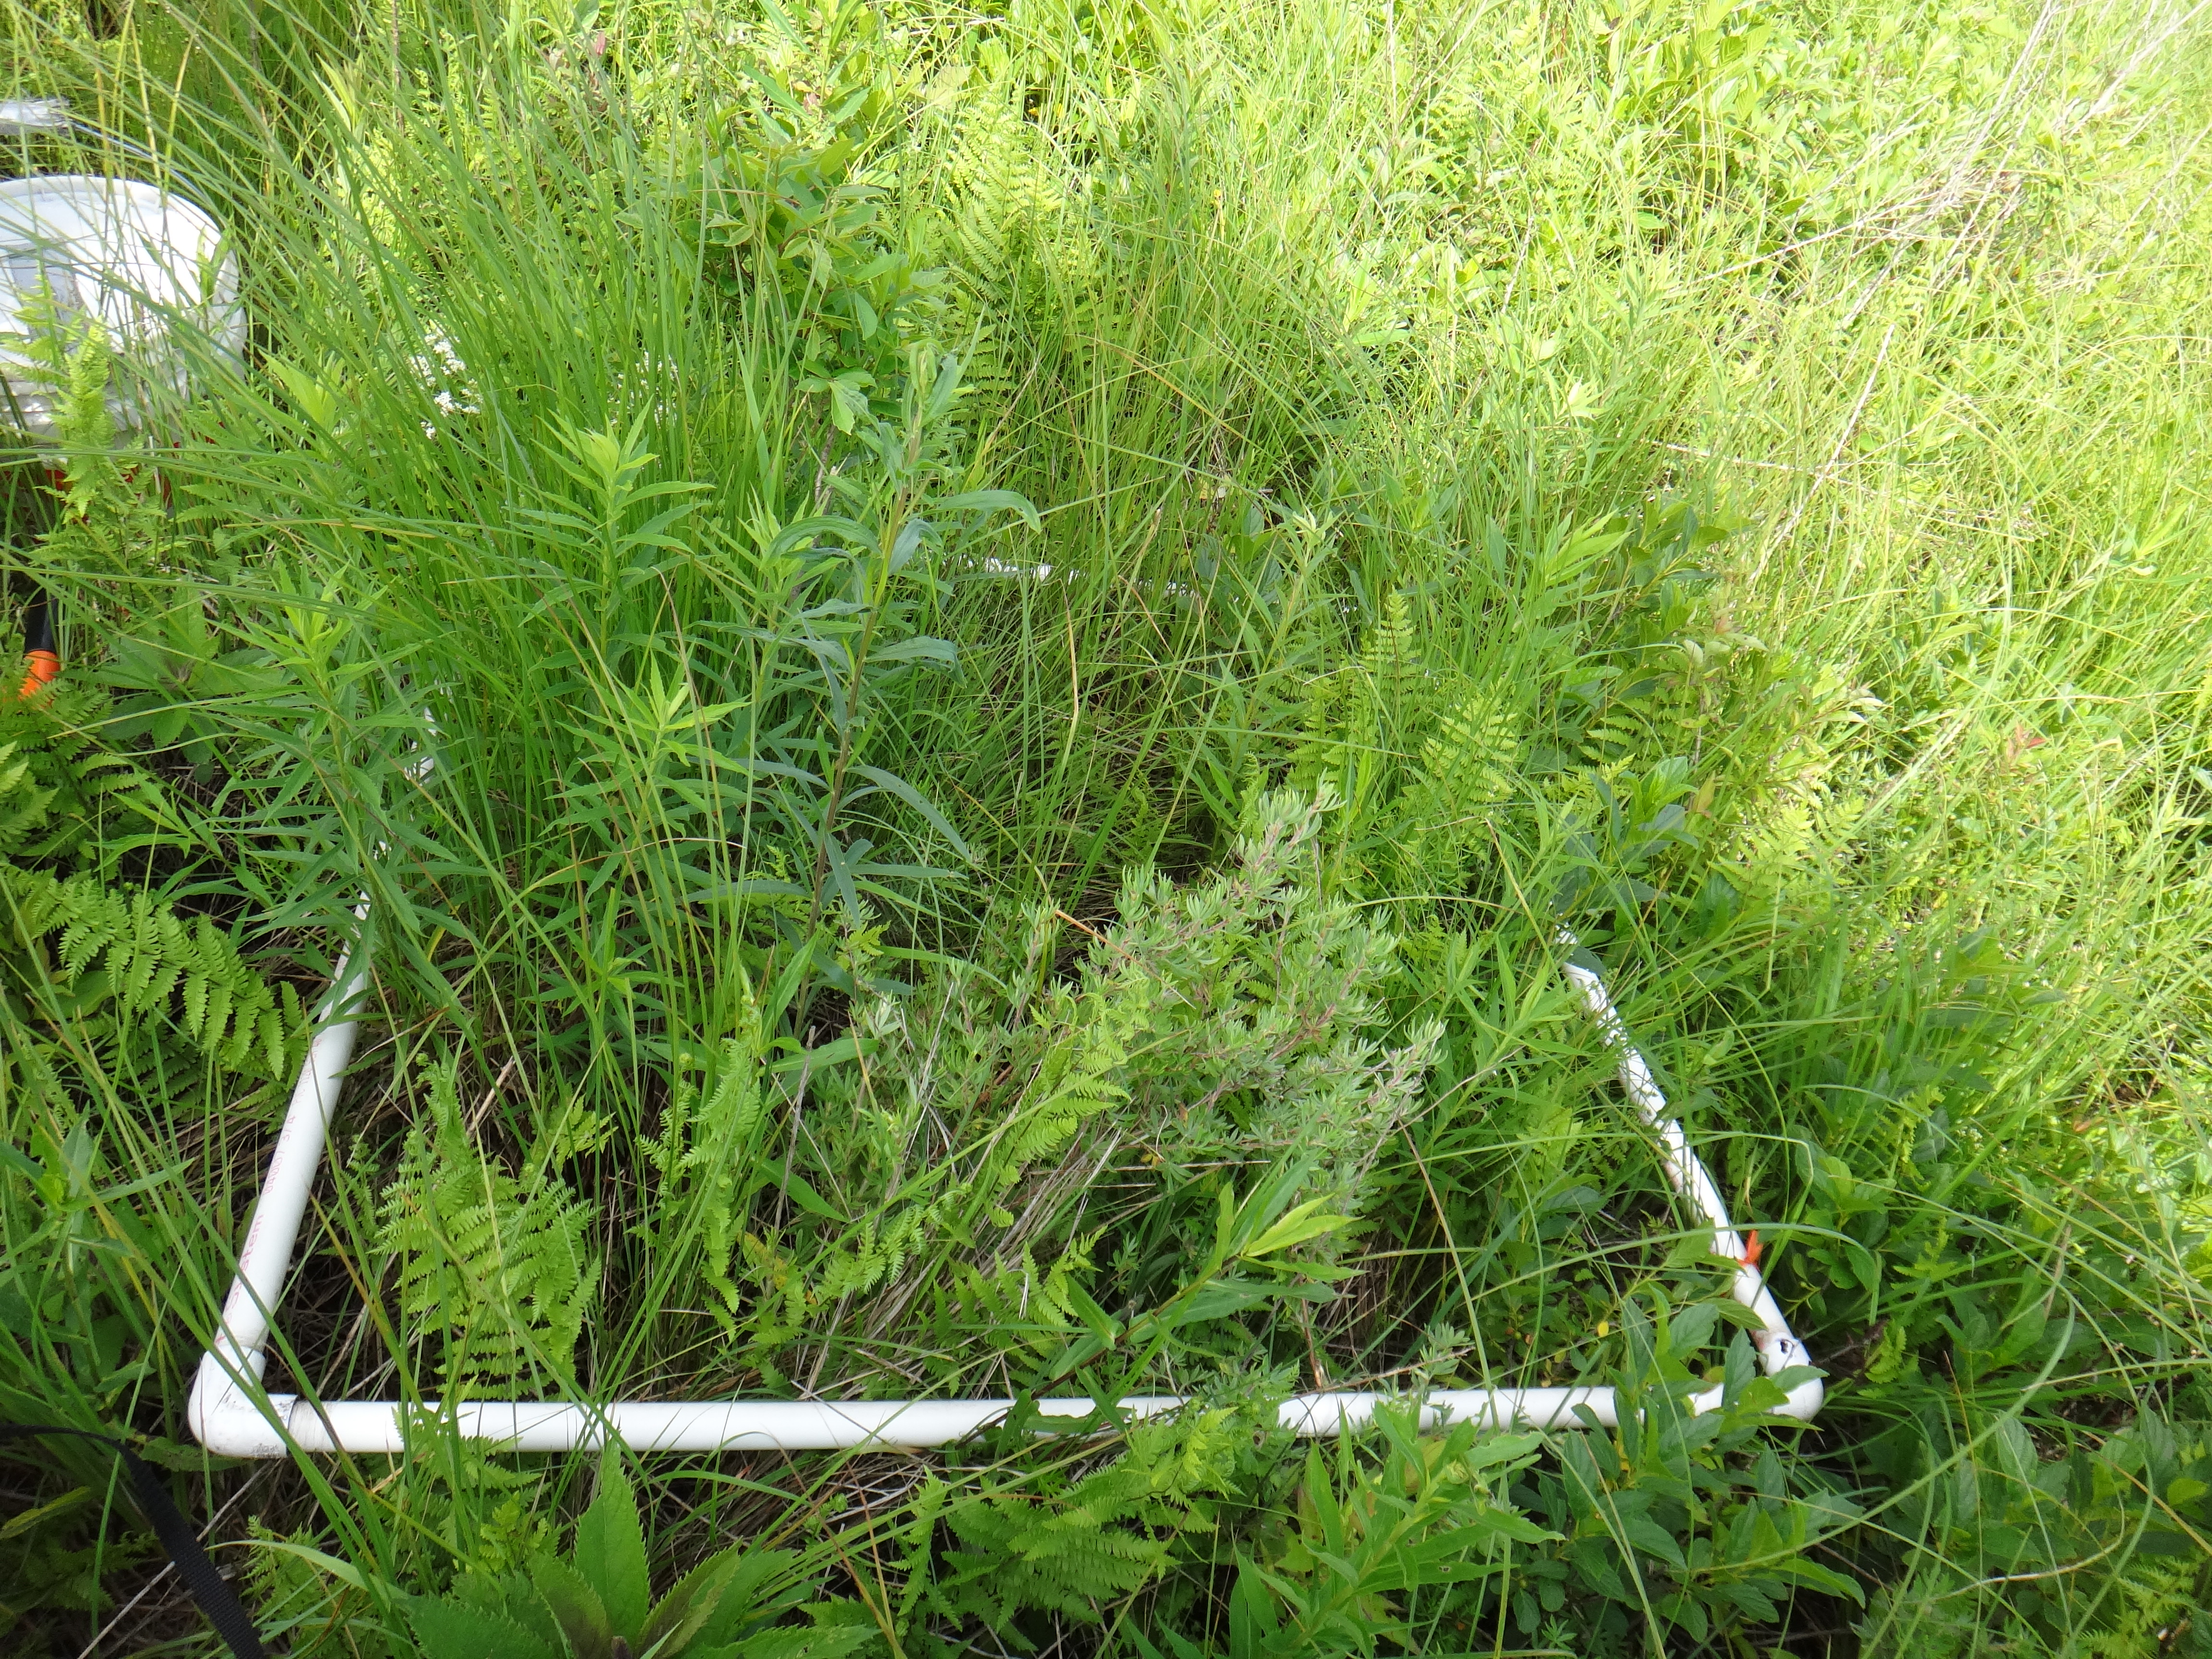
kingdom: Plantae
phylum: Tracheophyta
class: Liliopsida
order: Poales
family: Cyperaceae
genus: Carex
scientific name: Carex stricta
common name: Hummock sedge
